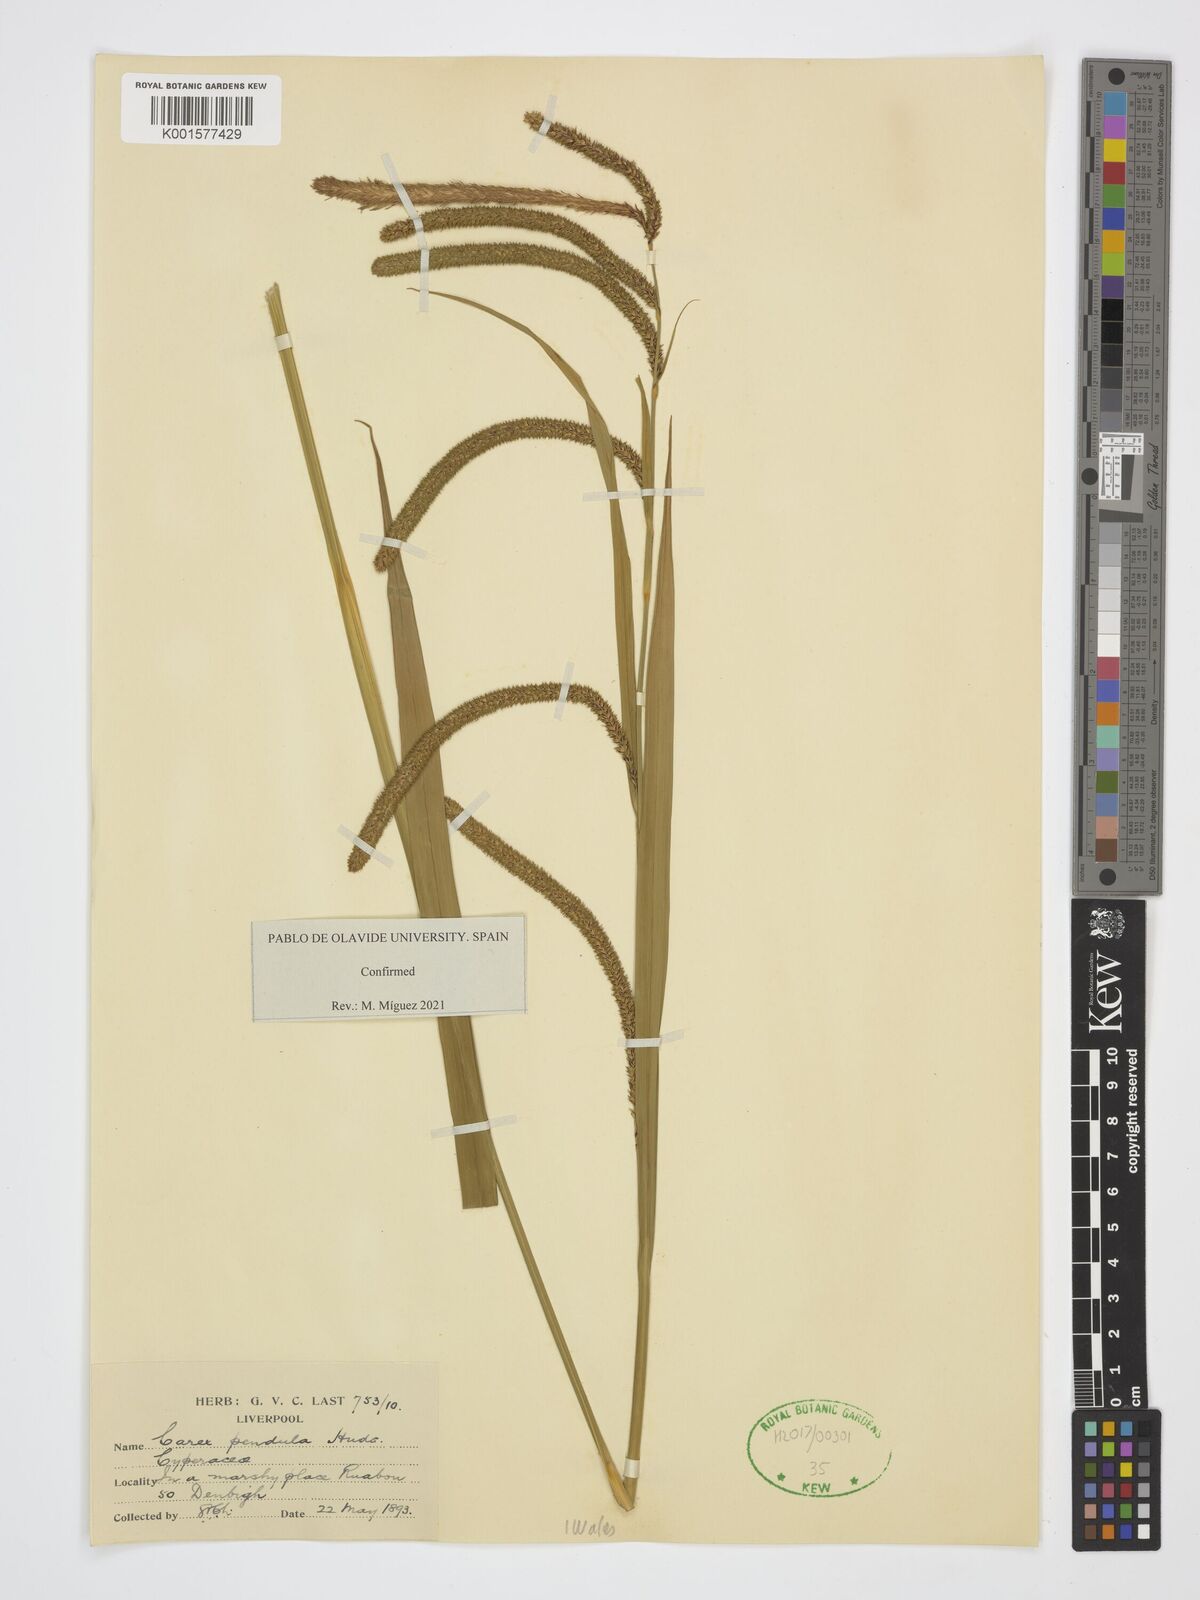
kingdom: Plantae
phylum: Tracheophyta
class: Liliopsida
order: Poales
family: Cyperaceae
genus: Carex
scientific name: Carex pendula
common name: Pendulous sedge
